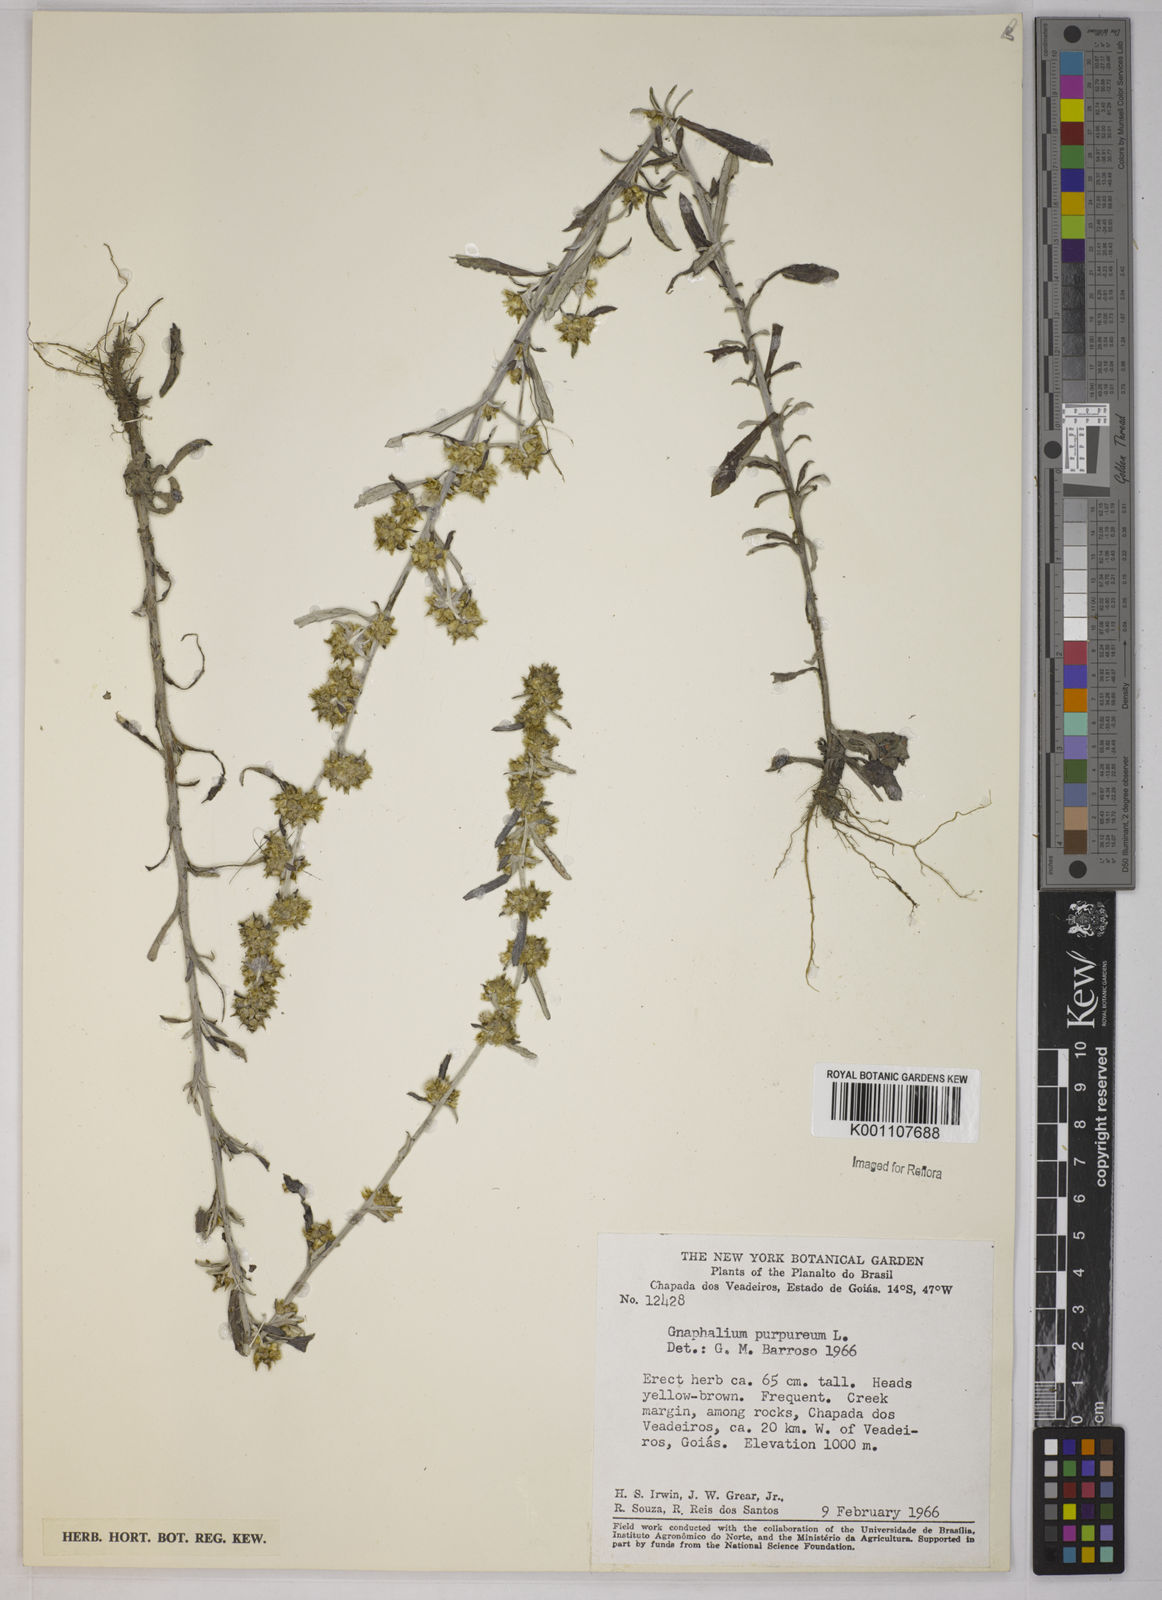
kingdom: Plantae
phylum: Tracheophyta
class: Magnoliopsida
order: Asterales
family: Asteraceae
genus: Gamochaeta
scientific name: Gamochaeta purpurea
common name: Purple cudweed
